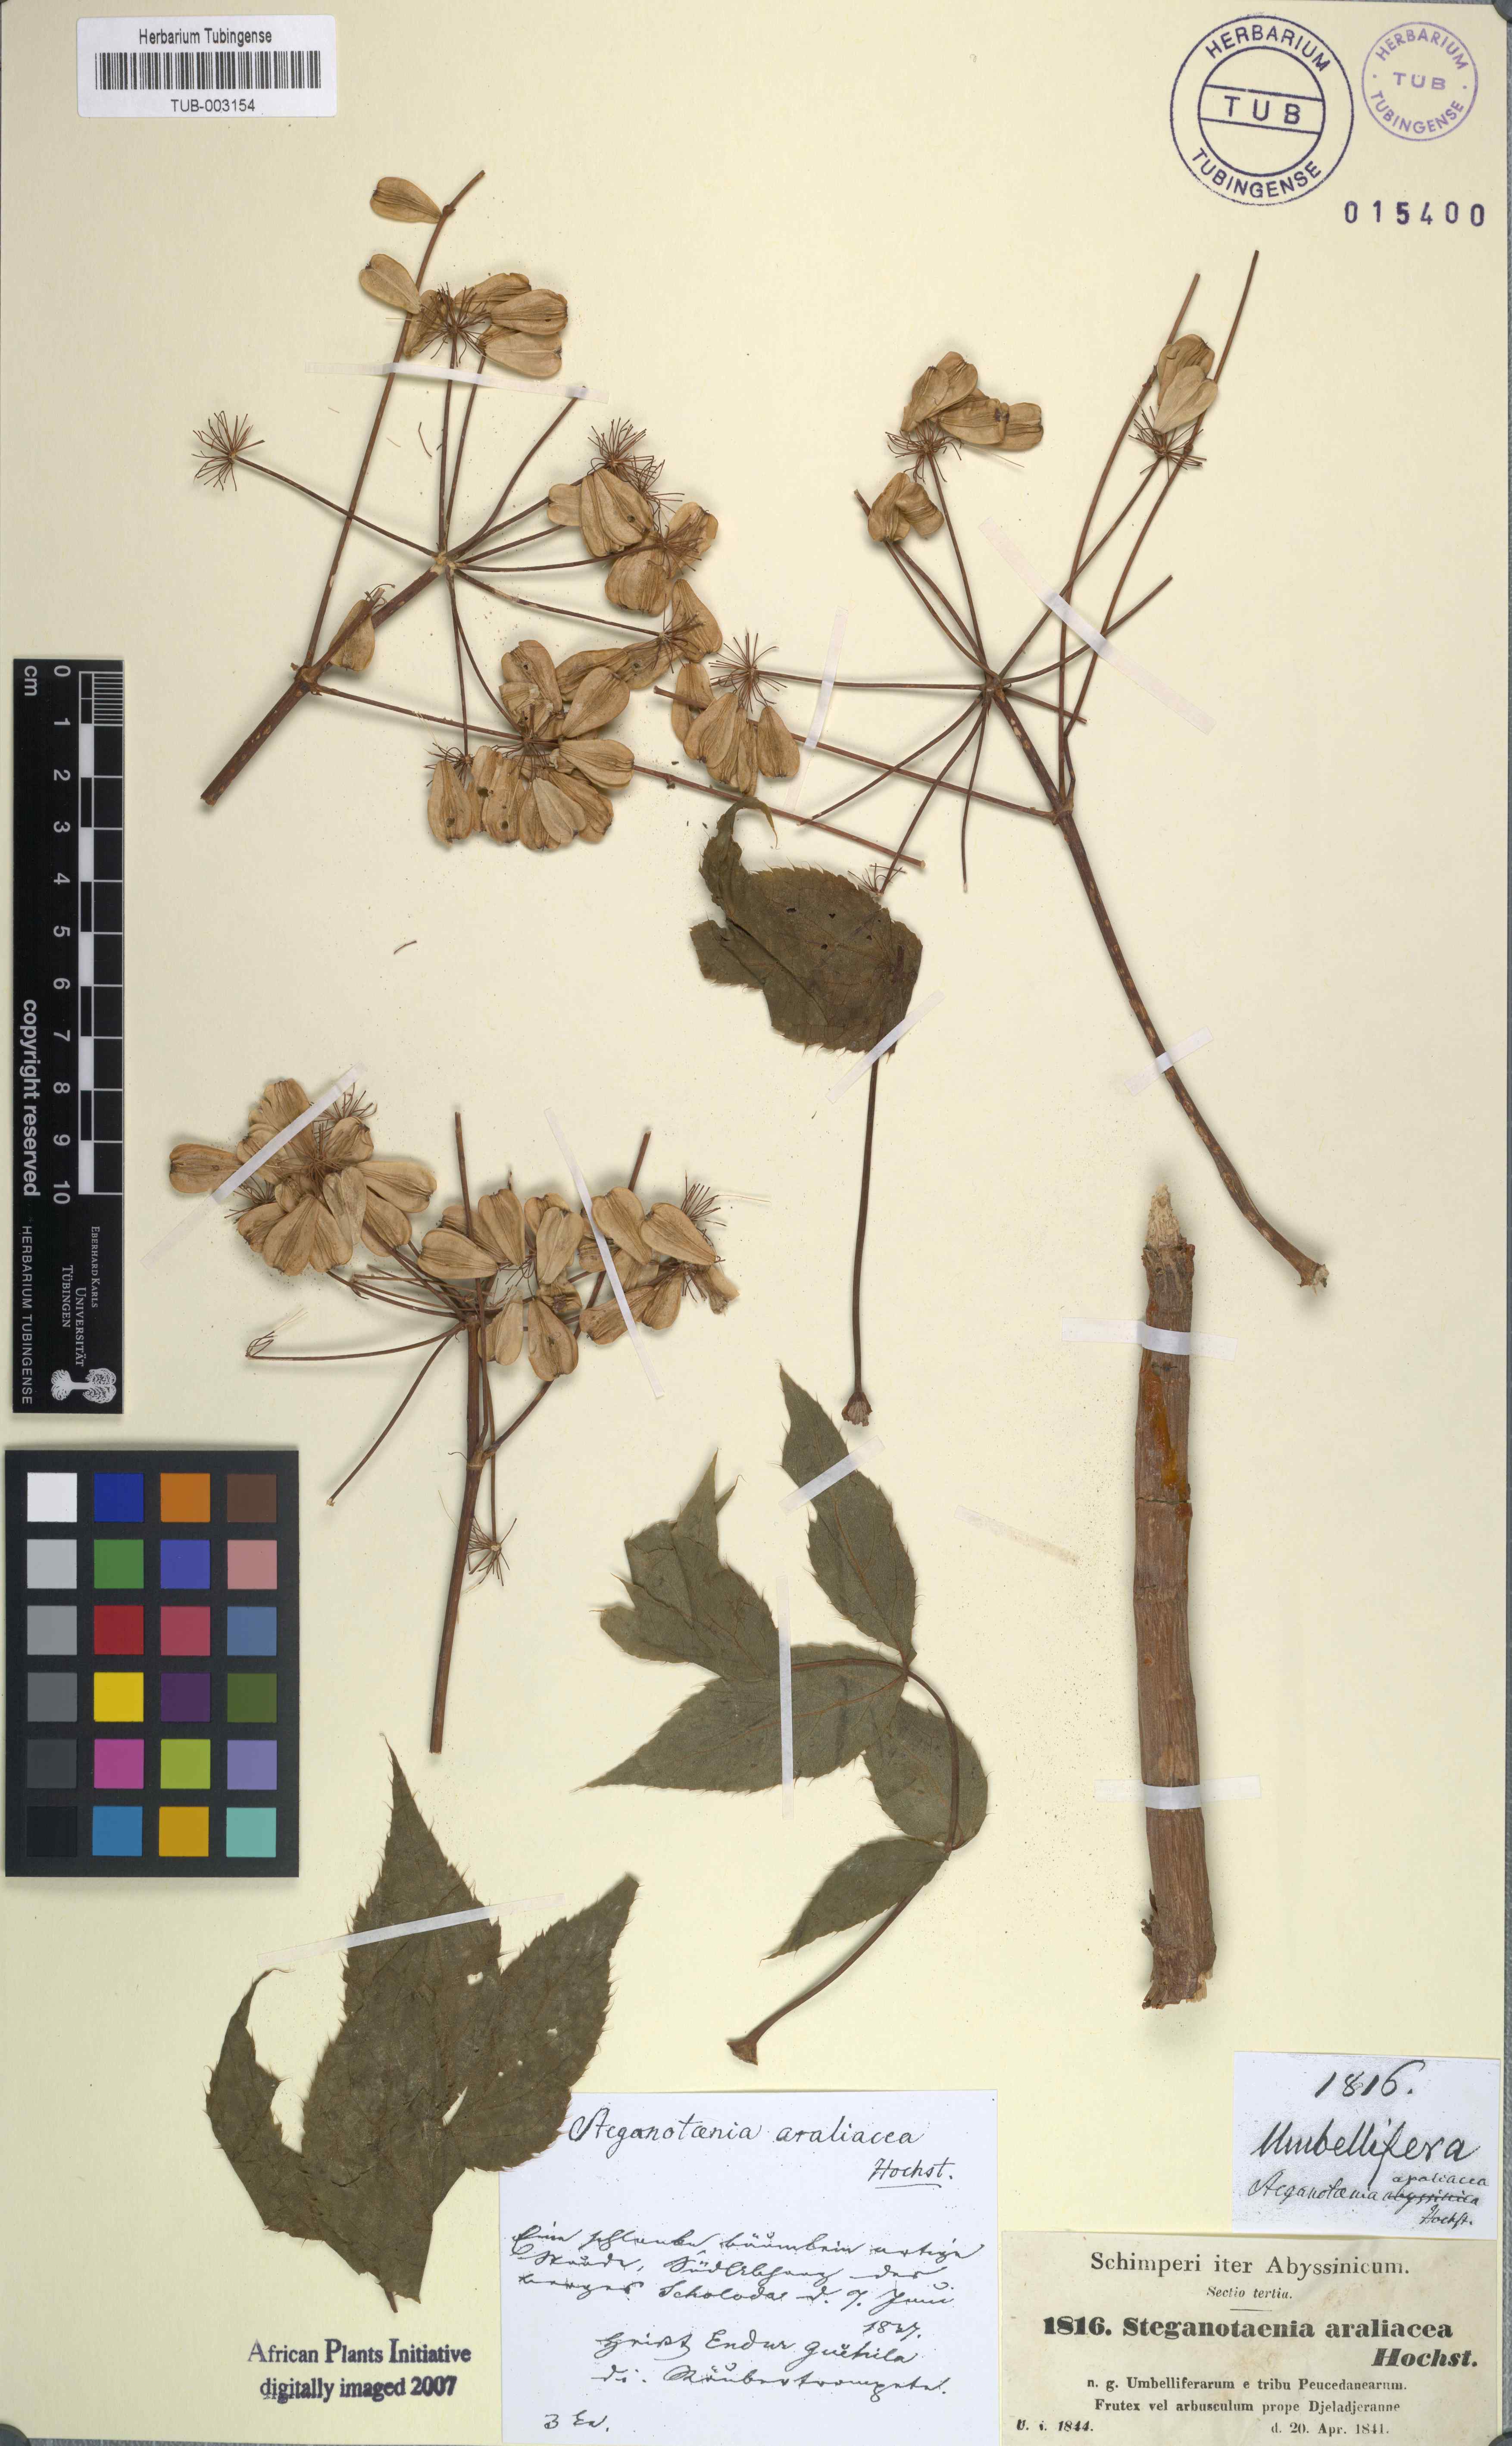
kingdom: Plantae
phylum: Tracheophyta
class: Magnoliopsida
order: Apiales
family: Apiaceae
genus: Steganotaenia
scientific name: Steganotaenia araliacea
